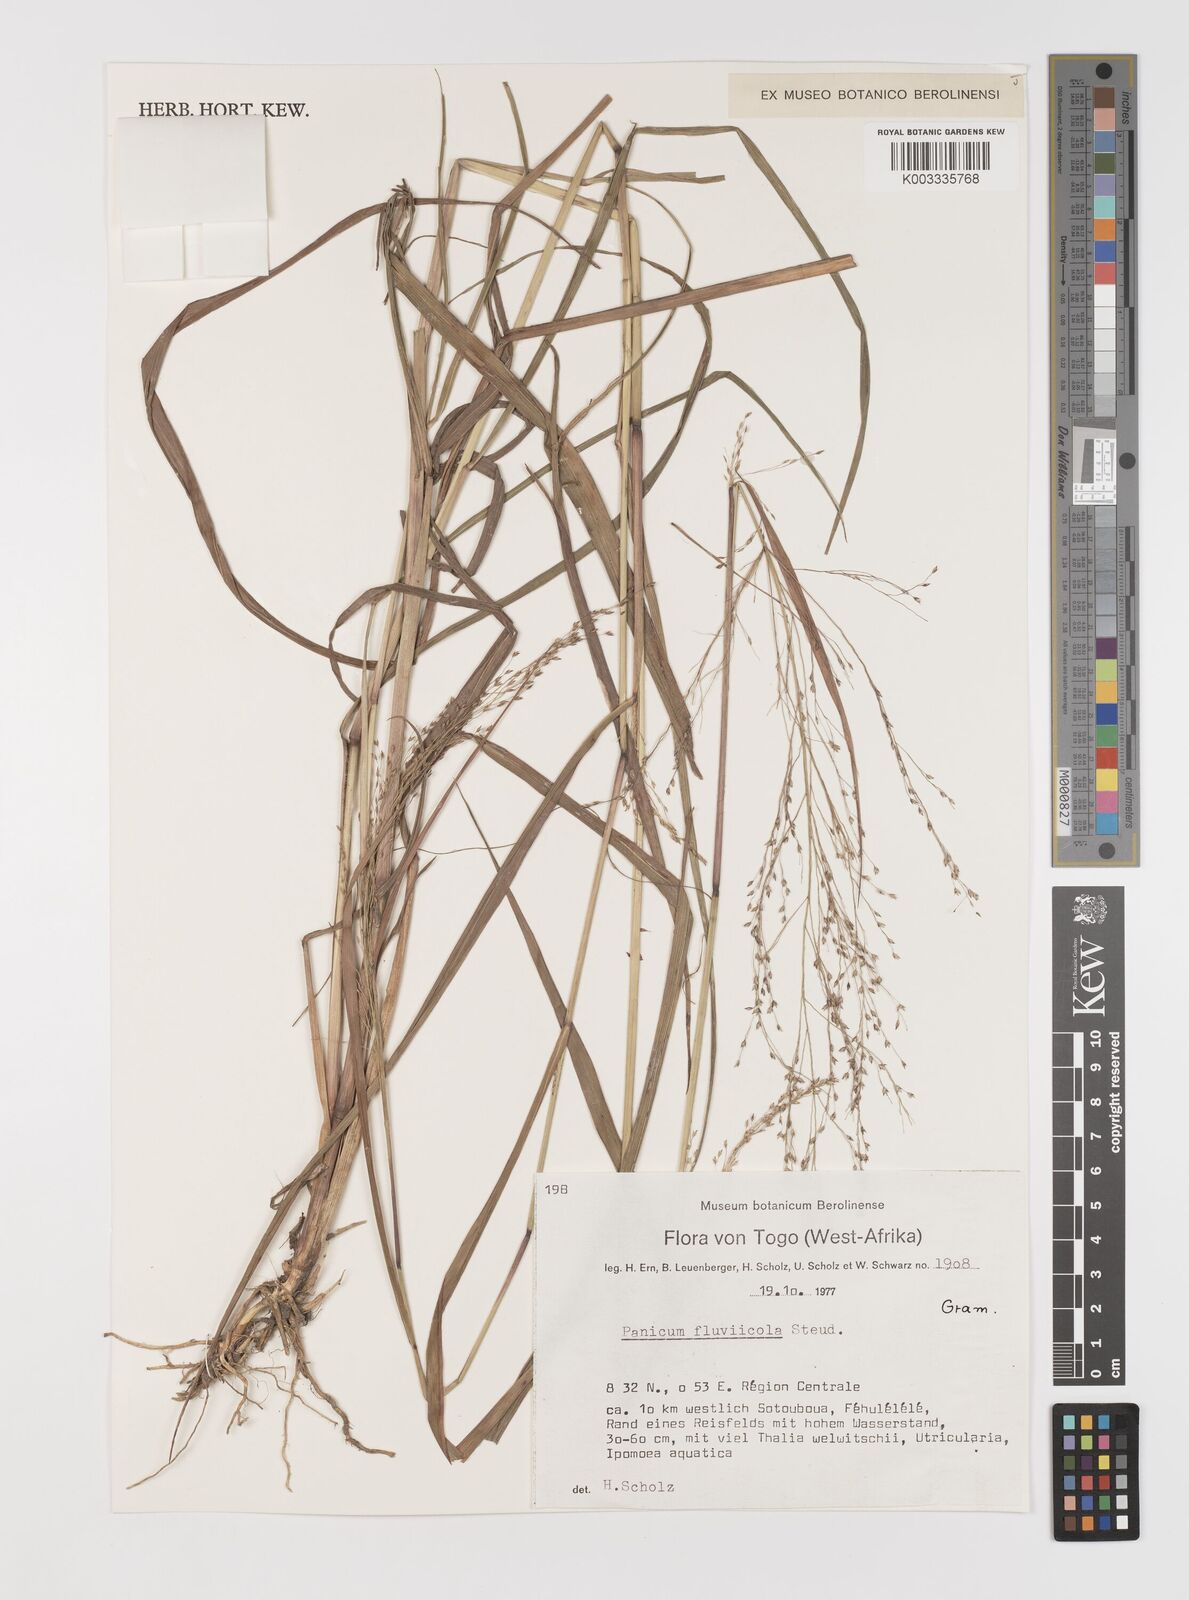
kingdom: Plantae
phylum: Tracheophyta
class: Liliopsida
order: Poales
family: Poaceae
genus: Panicum
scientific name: Panicum fluviicola
